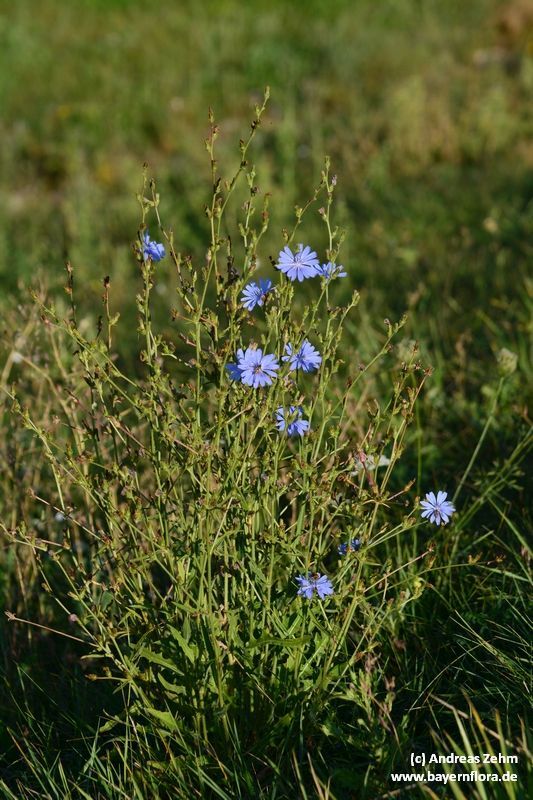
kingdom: Plantae
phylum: Tracheophyta
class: Magnoliopsida
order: Asterales
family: Asteraceae
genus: Cichorium
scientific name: Cichorium intybus
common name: Chicory
